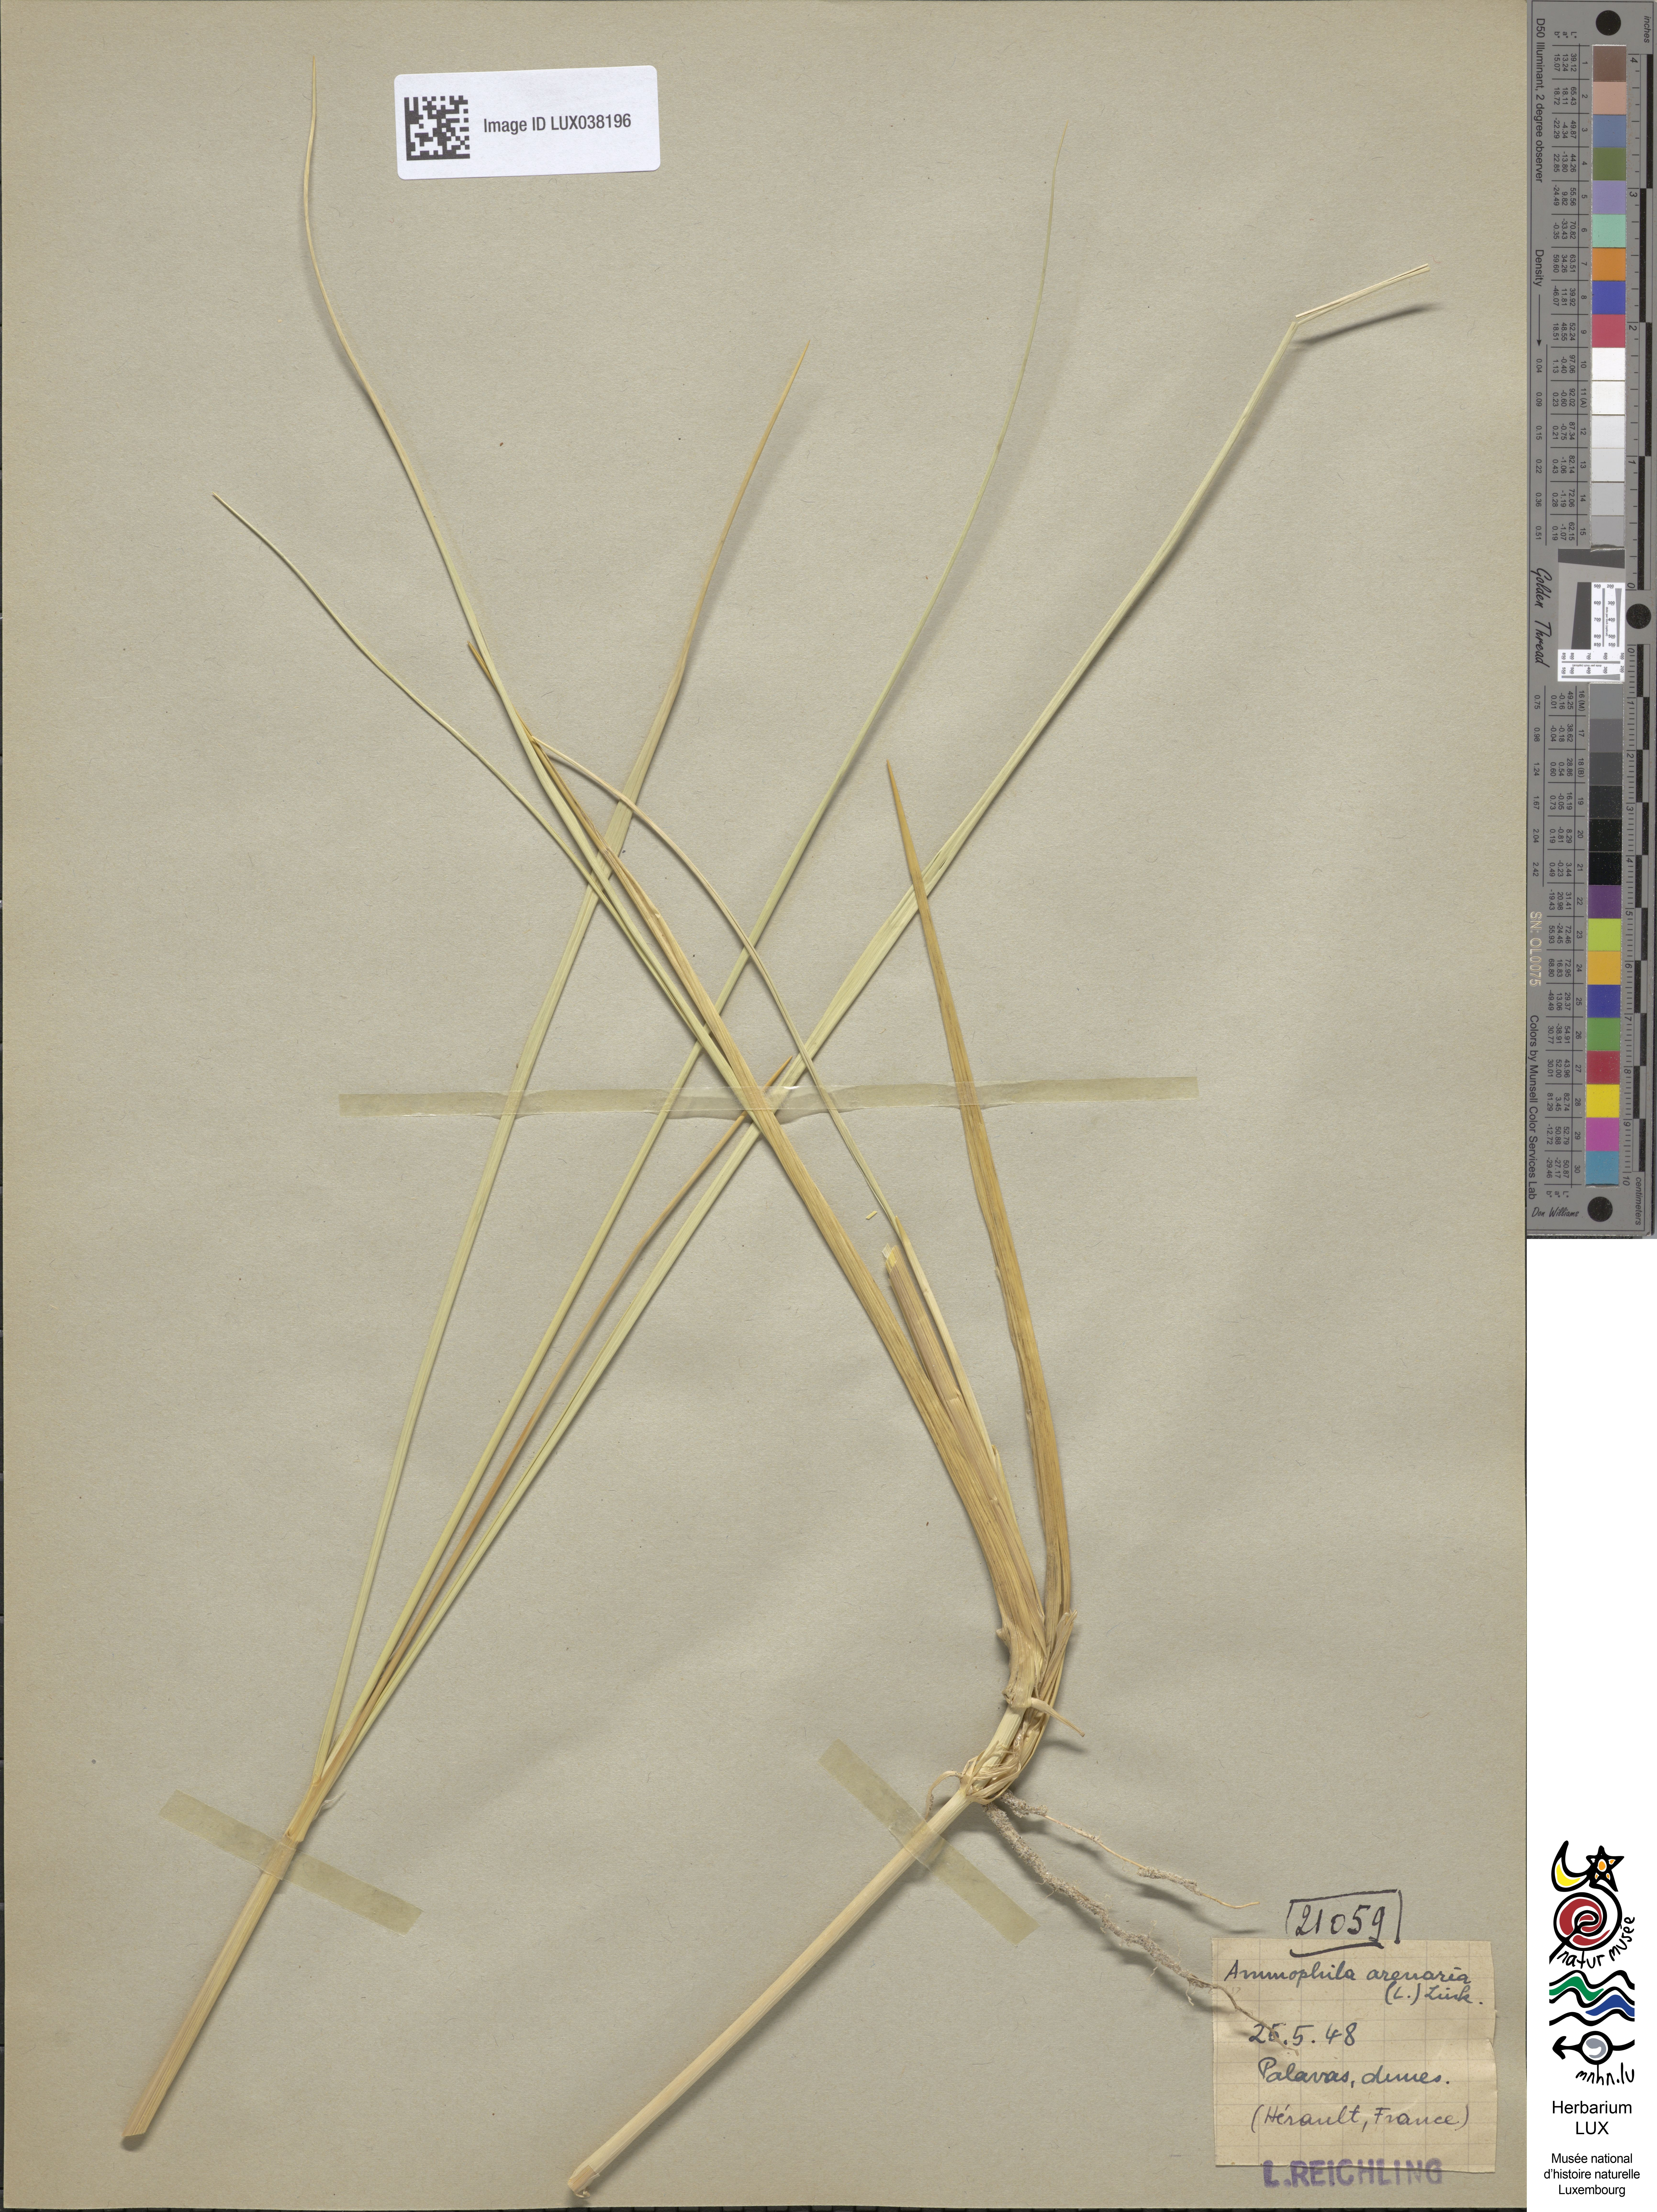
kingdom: Plantae
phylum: Tracheophyta
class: Liliopsida
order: Poales
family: Poaceae
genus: Calamagrostis
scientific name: Calamagrostis arenaria
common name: European beachgrass
